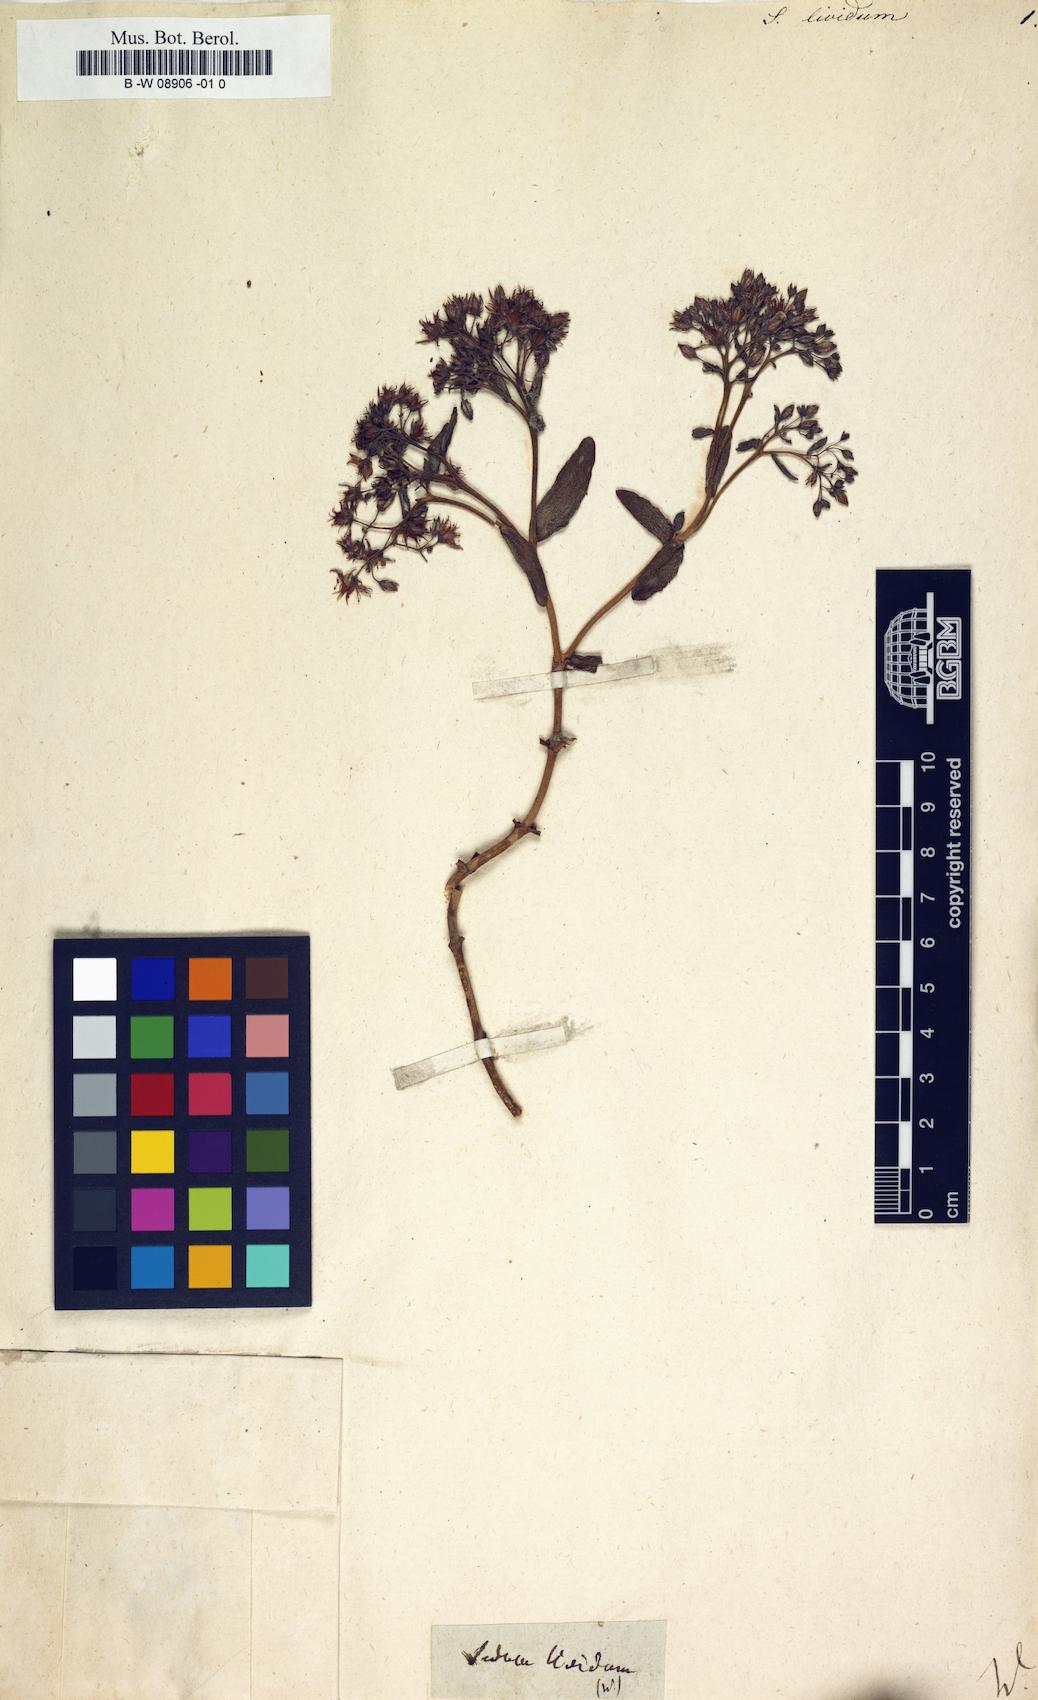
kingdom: Plantae
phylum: Tracheophyta
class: Magnoliopsida
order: Saxifragales
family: Crassulaceae
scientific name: Crassulaceae
